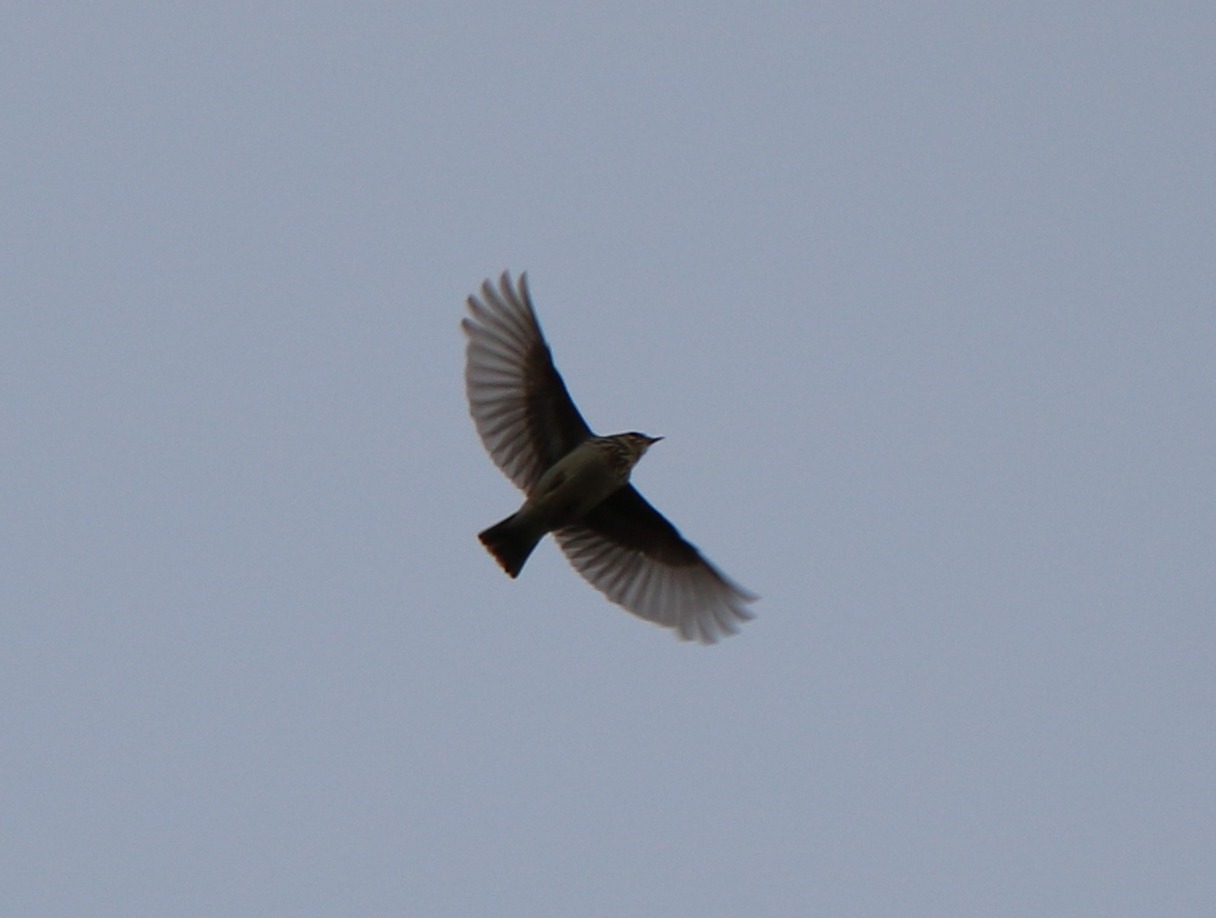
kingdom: Animalia
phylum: Chordata
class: Aves
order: Passeriformes
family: Alaudidae
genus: Lullula
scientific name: Lullula arborea
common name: Hedelærke
